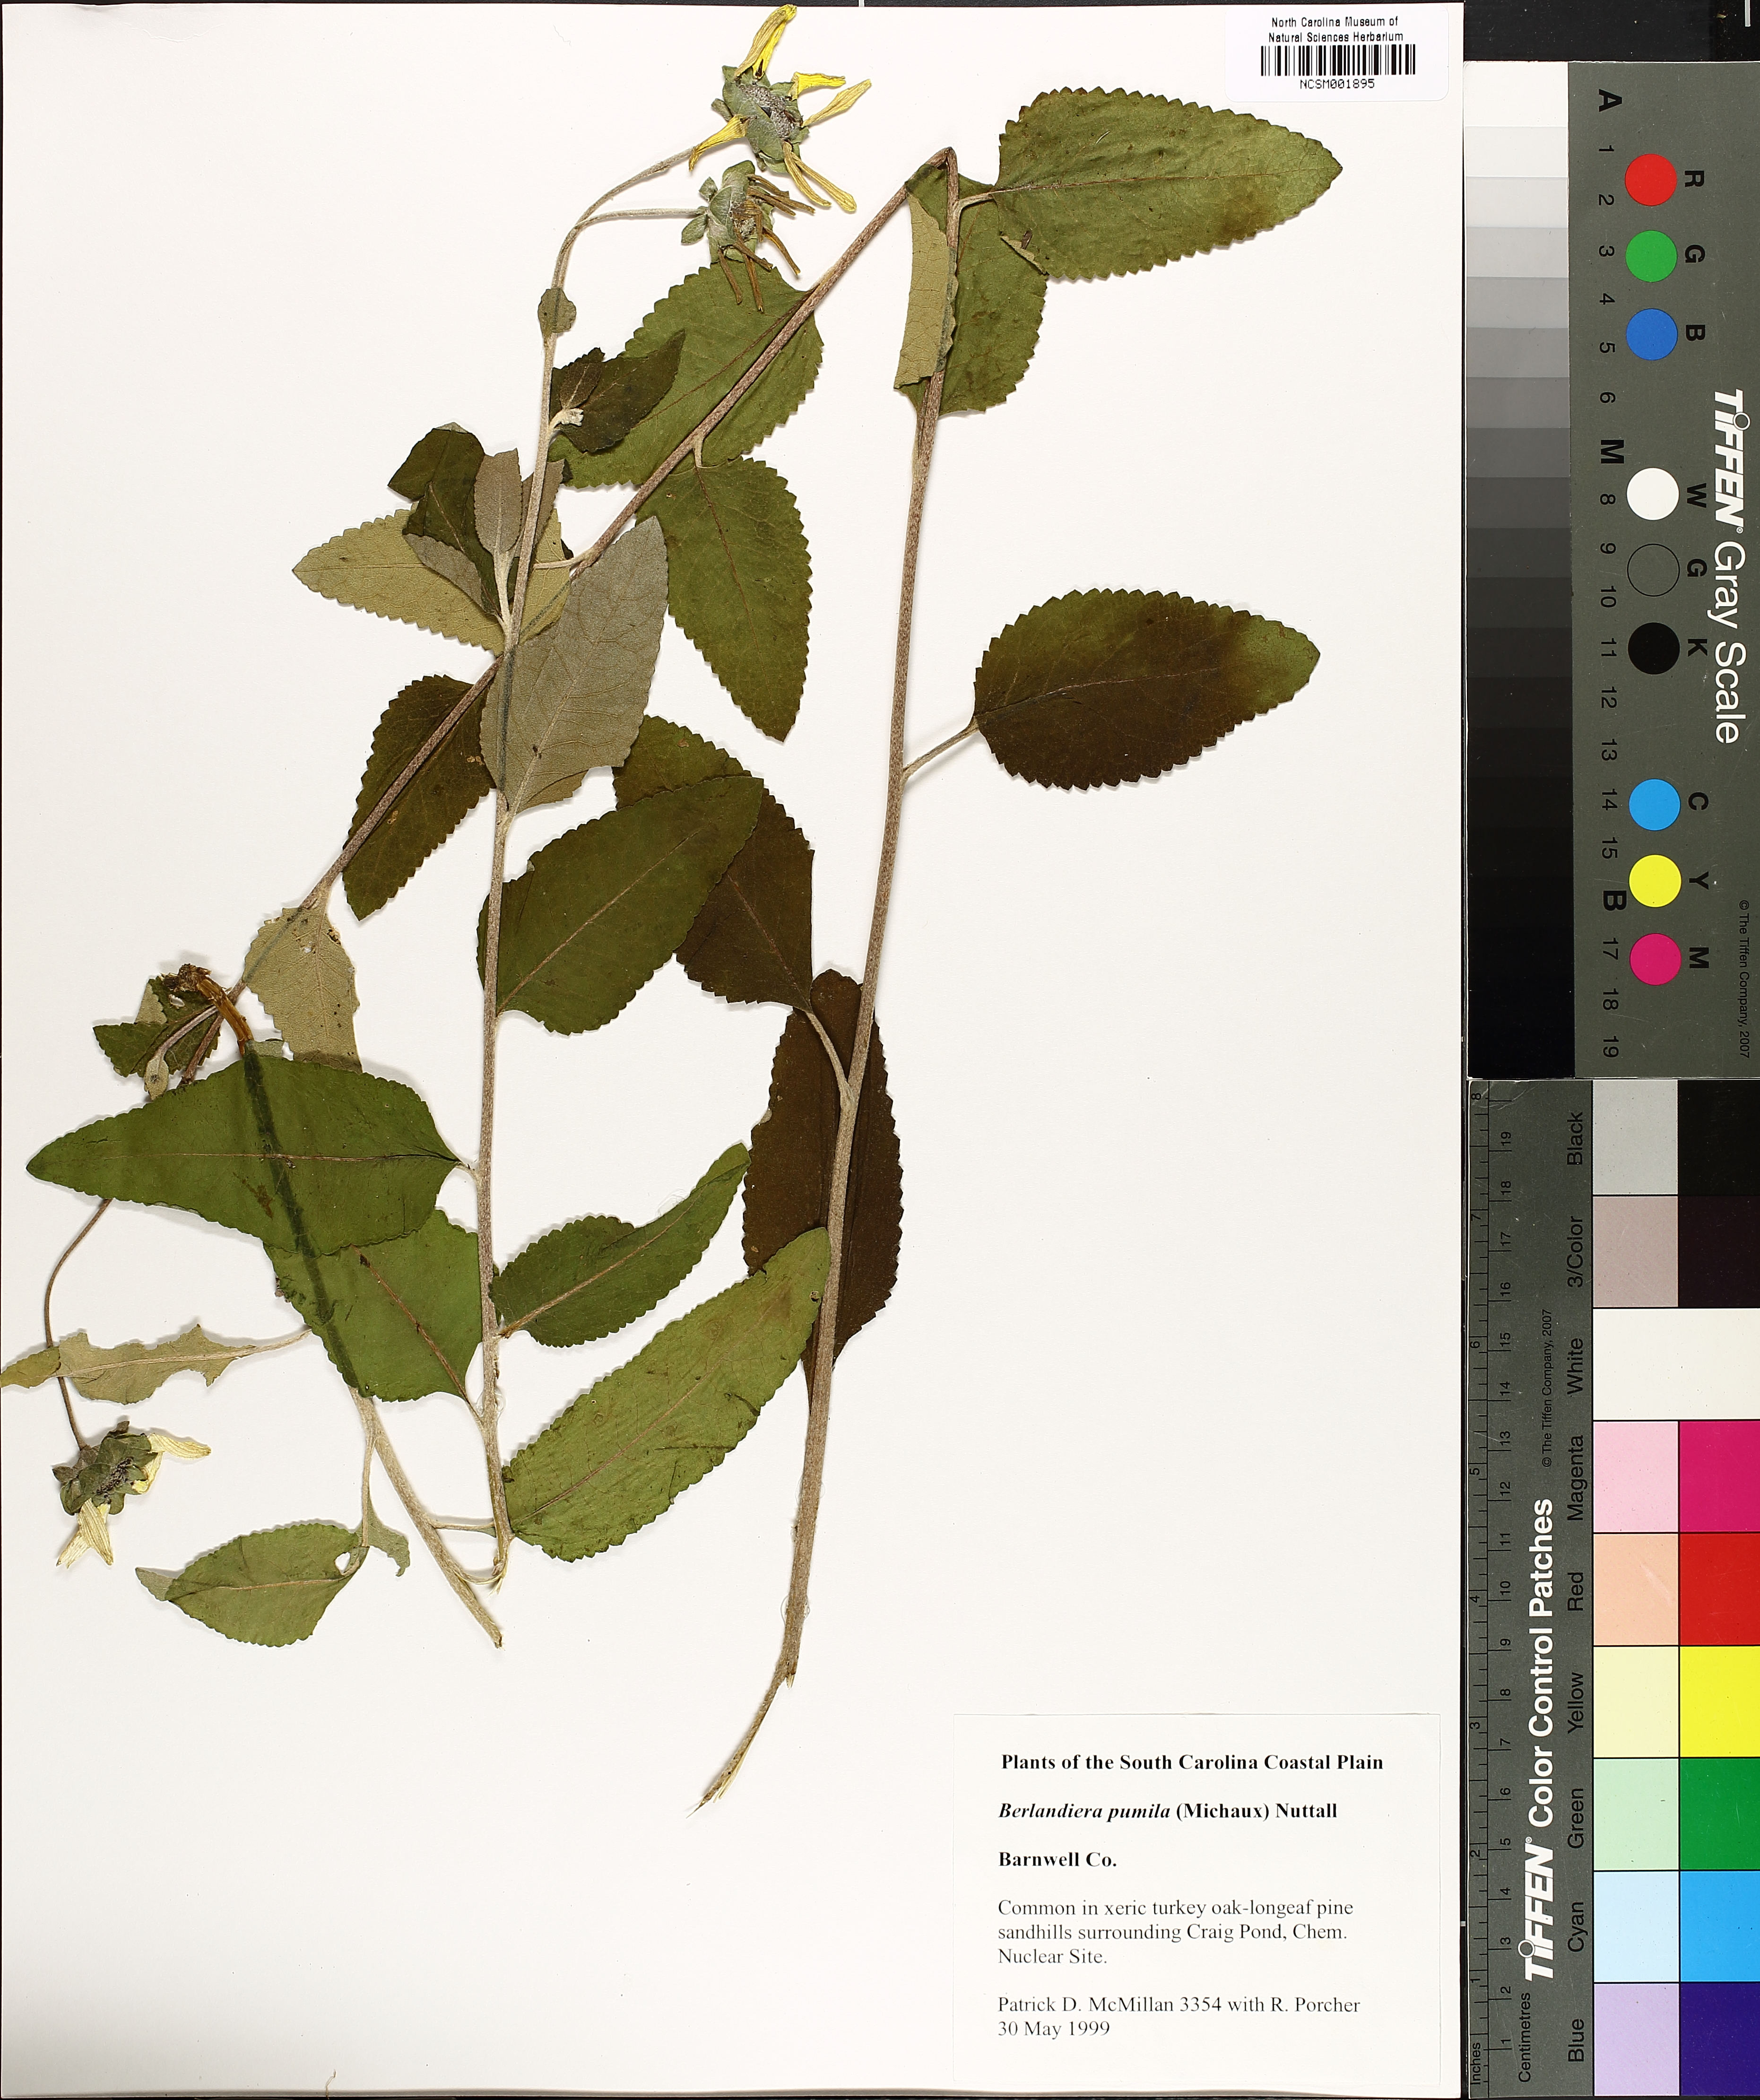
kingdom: Plantae
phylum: Tracheophyta
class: Magnoliopsida
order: Asterales
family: Asteraceae
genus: Berlandiera
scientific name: Berlandiera pumila
